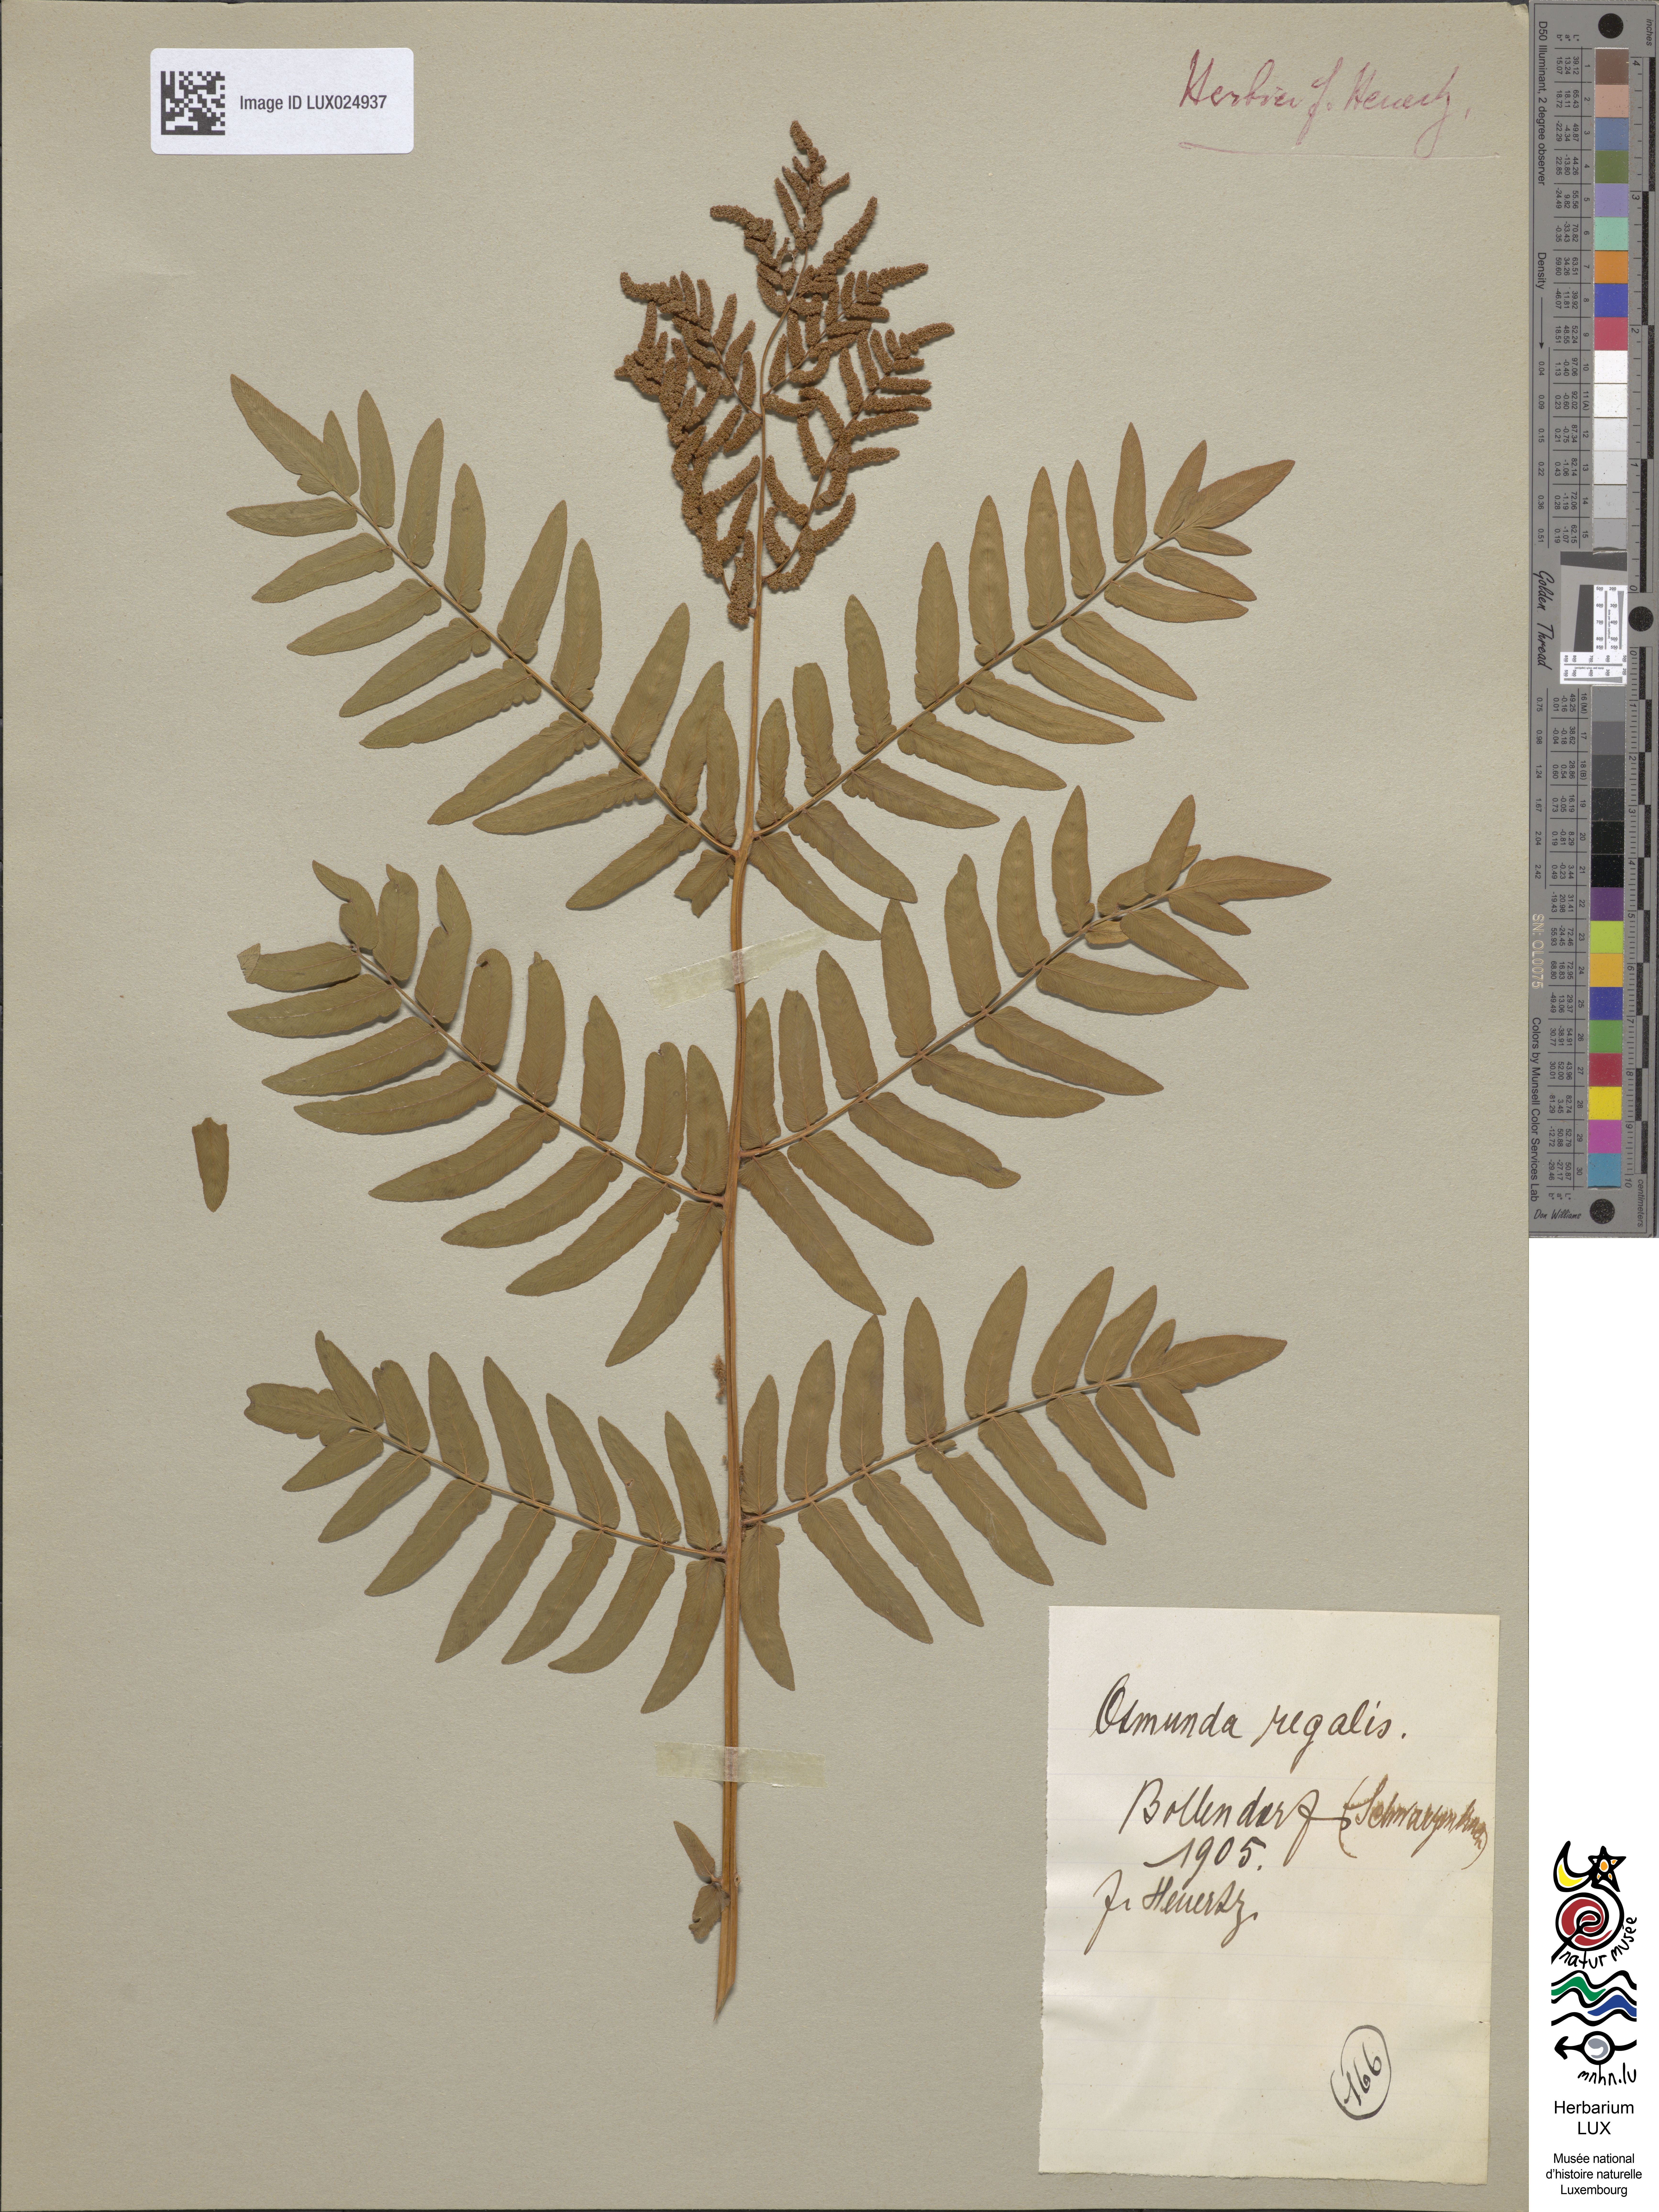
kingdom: Plantae
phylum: Tracheophyta
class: Polypodiopsida
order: Osmundales
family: Osmundaceae
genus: Osmunda
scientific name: Osmunda regalis
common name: Royal fern
